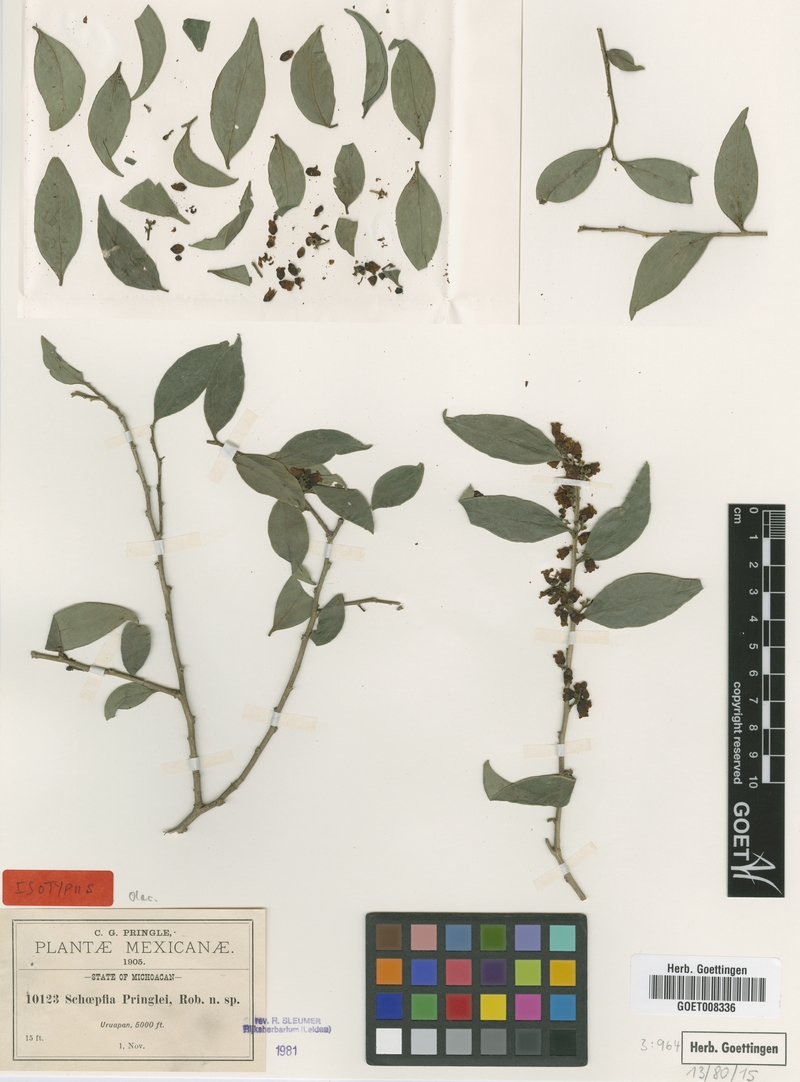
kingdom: Plantae
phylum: Tracheophyta
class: Magnoliopsida
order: Santalales
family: Schoepfiaceae
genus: Schoepfia
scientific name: Schoepfia pringlei
